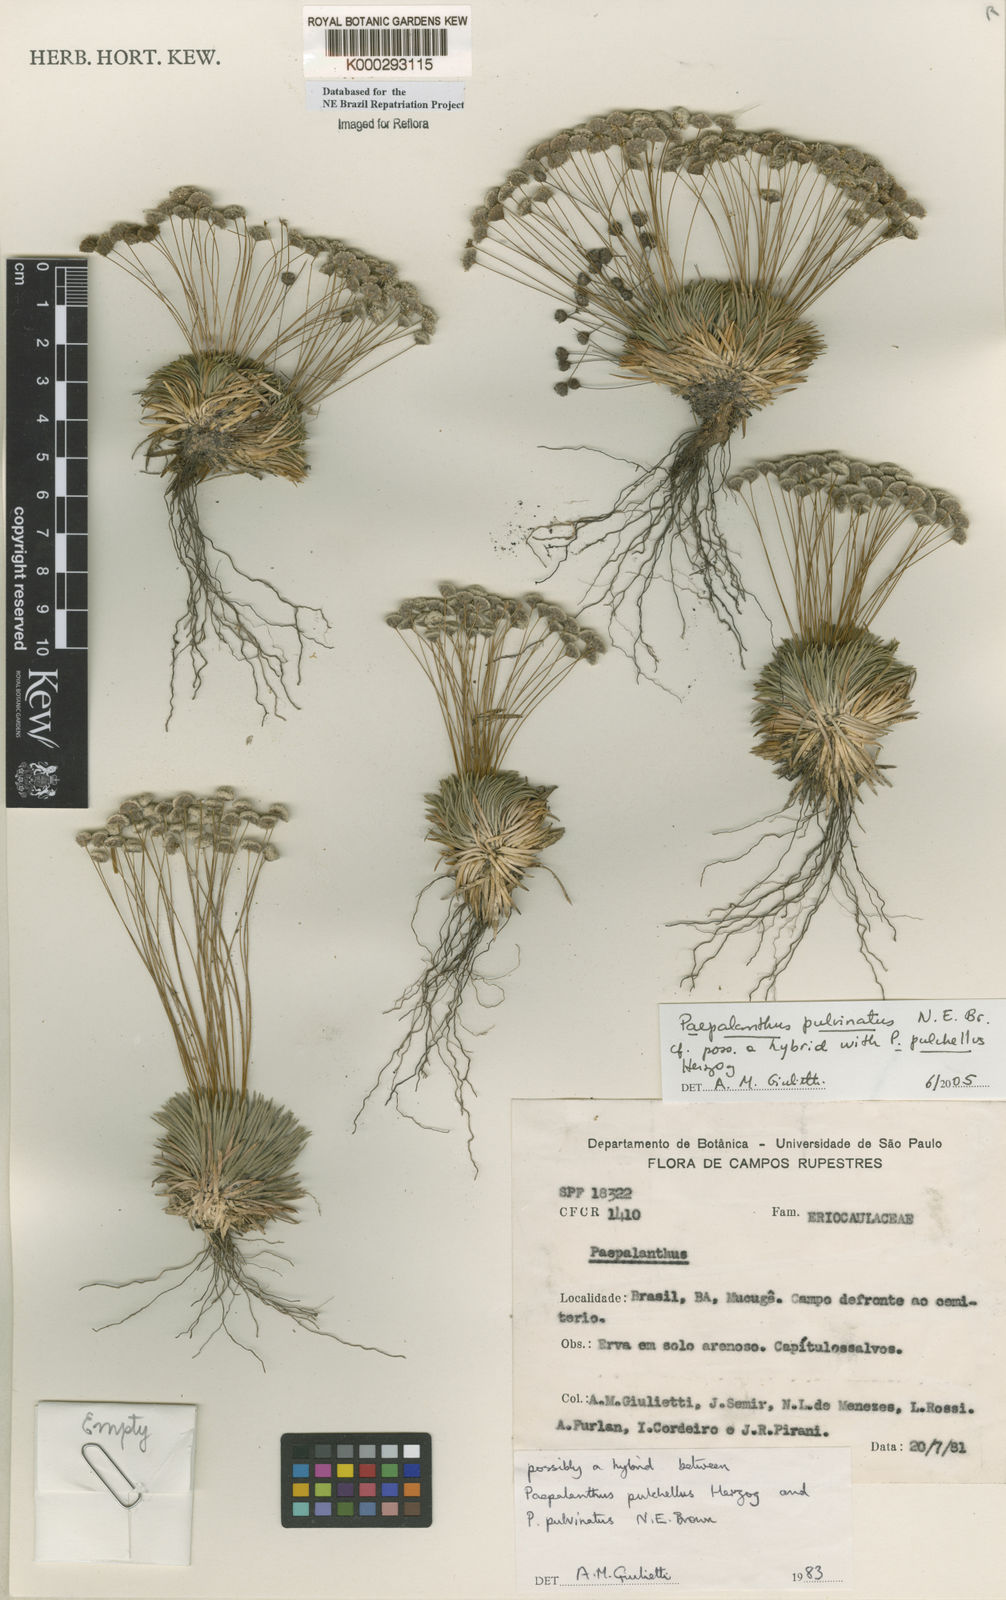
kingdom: Plantae
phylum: Tracheophyta
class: Liliopsida
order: Poales
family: Eriocaulaceae
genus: Paepalanthus
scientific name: Paepalanthus pulvinatus
